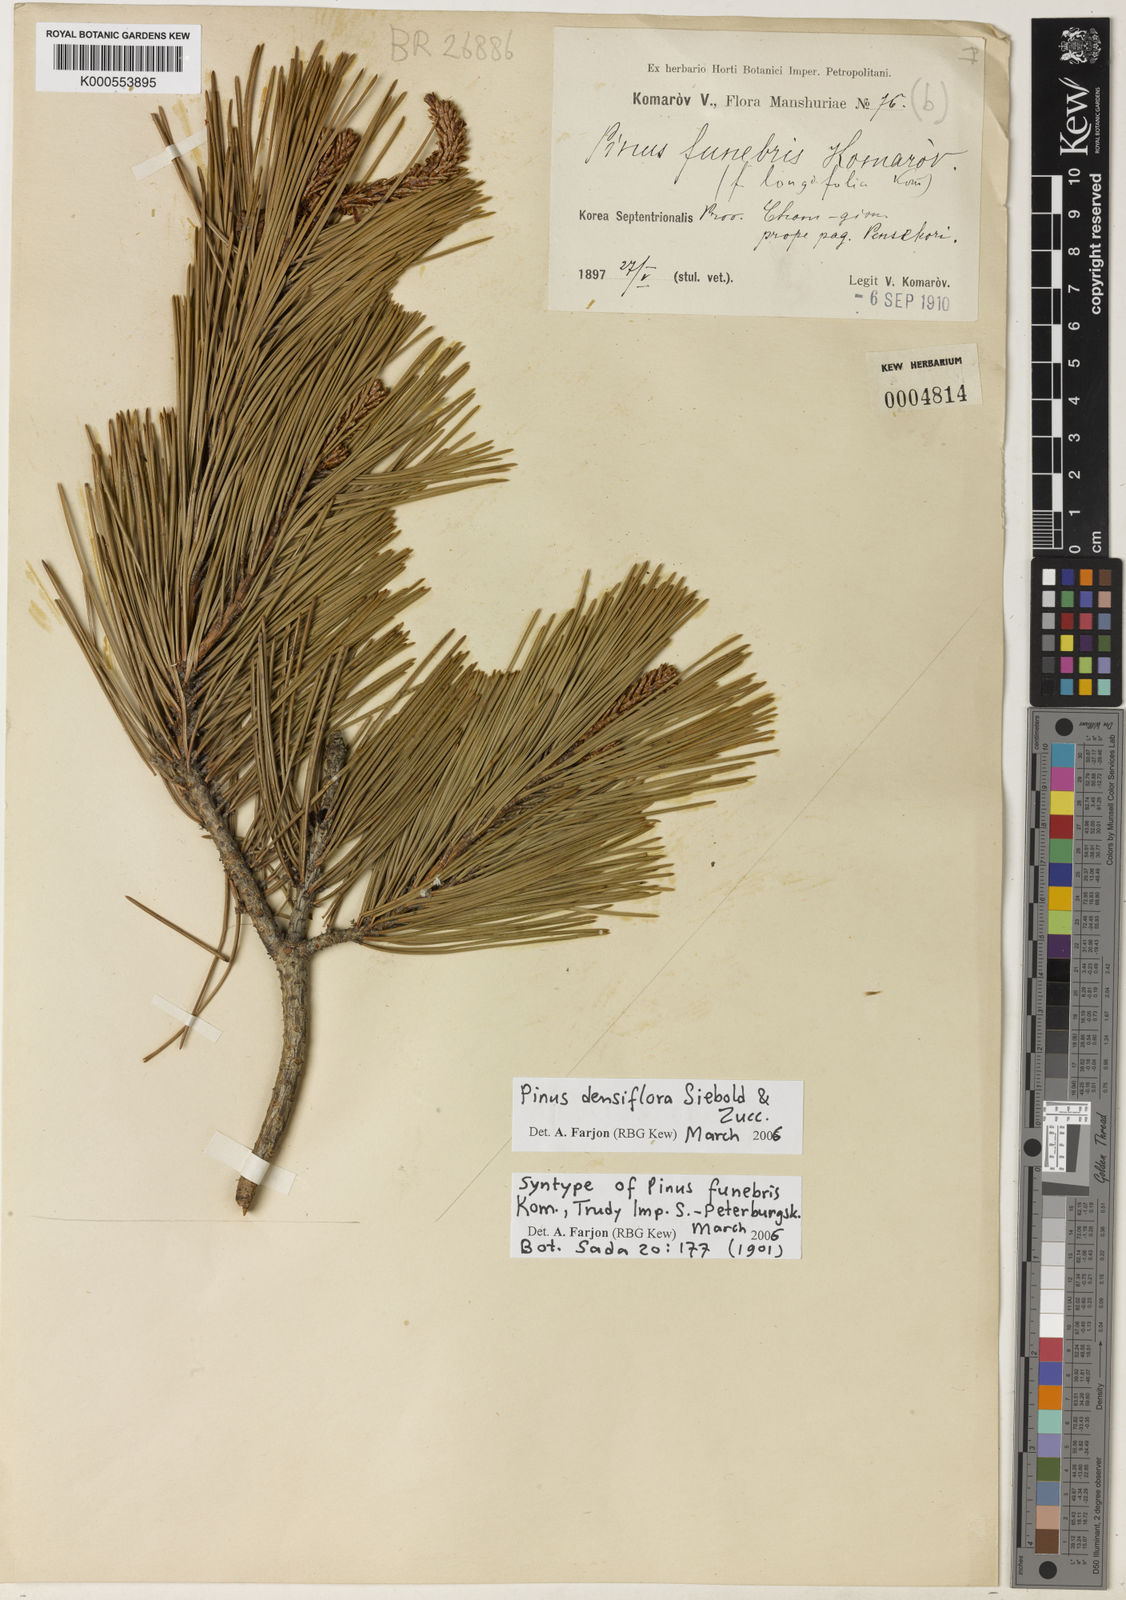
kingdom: Plantae
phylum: Tracheophyta
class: Pinopsida
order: Pinales
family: Pinaceae
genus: Pinus
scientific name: Pinus densiflora
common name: Japanese red pine
